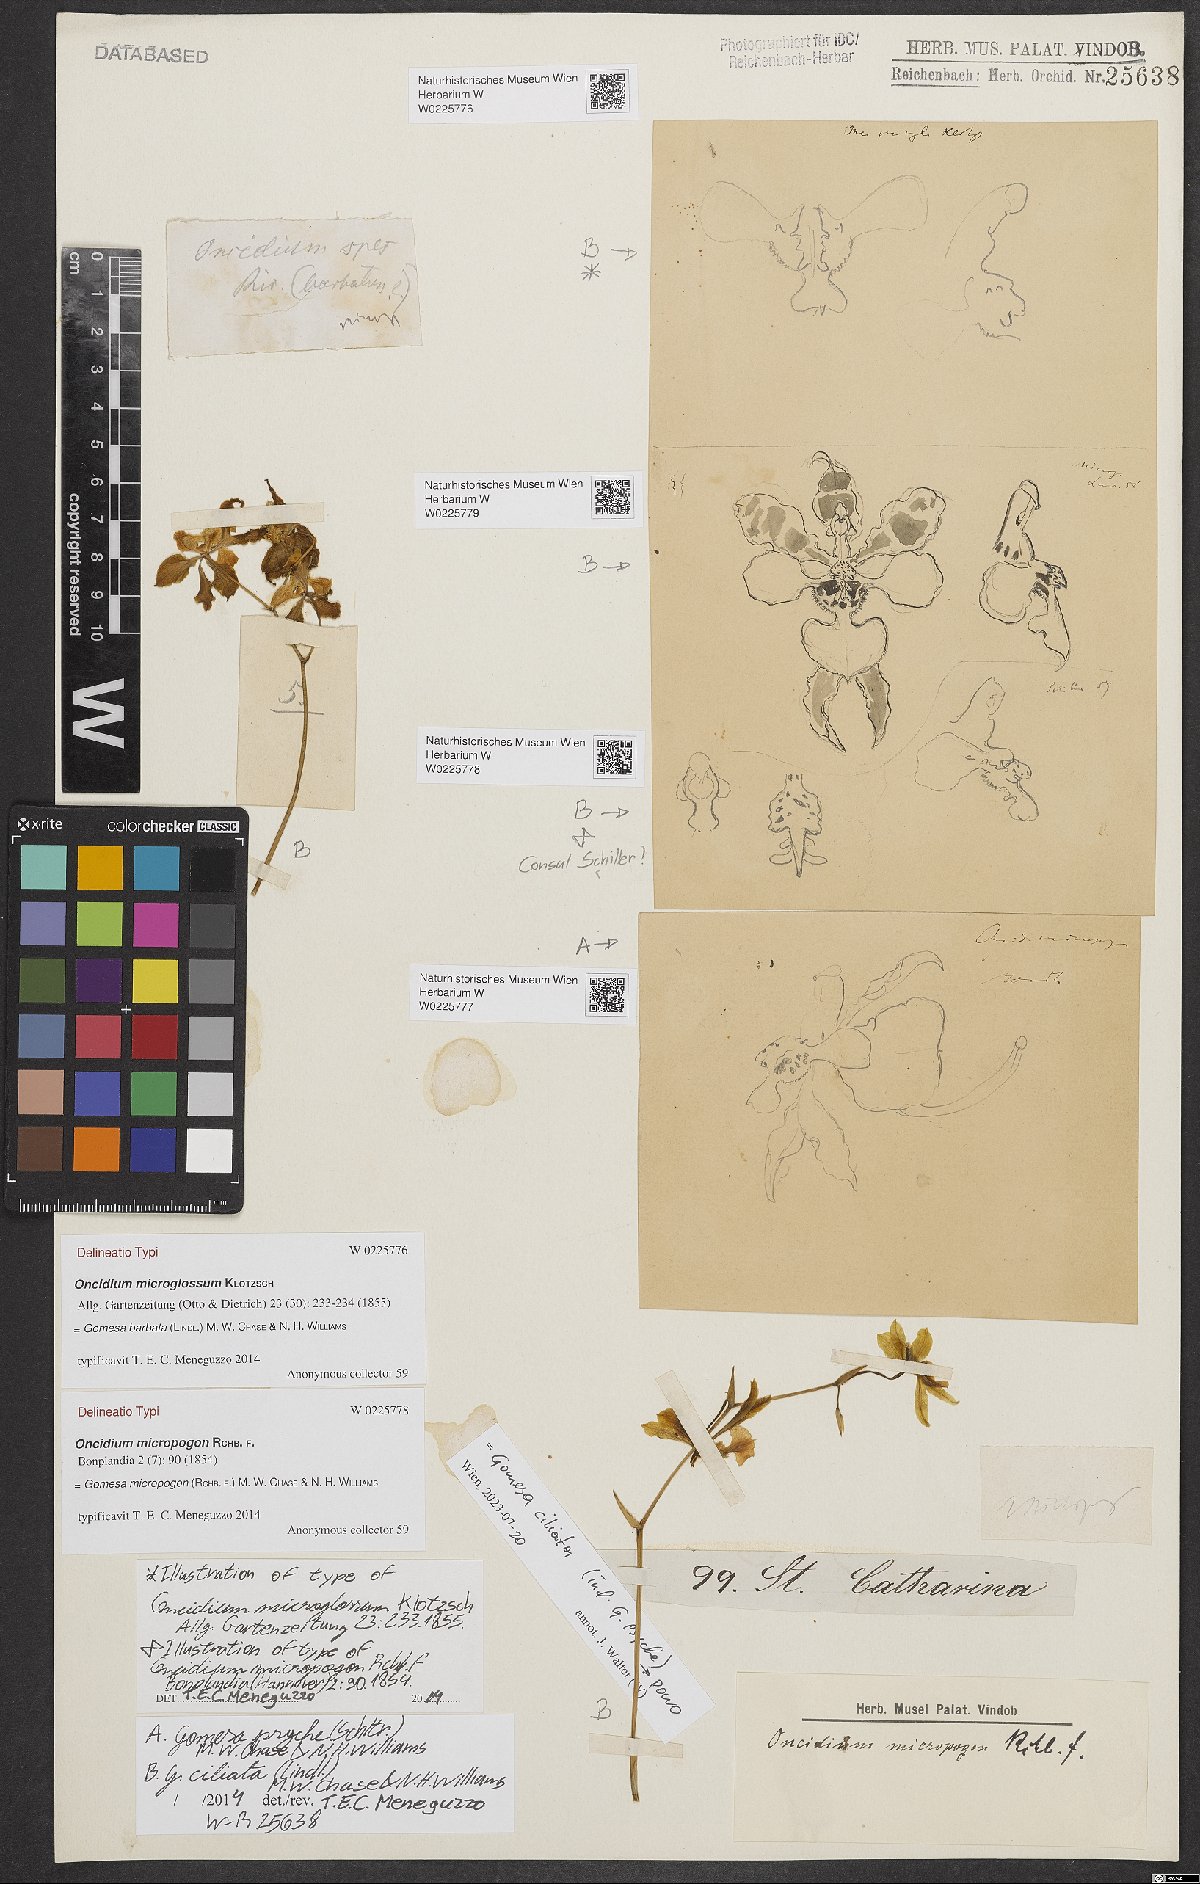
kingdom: Plantae
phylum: Tracheophyta
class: Liliopsida
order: Asparagales
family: Orchidaceae
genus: Gomesa
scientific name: Gomesa barbata
